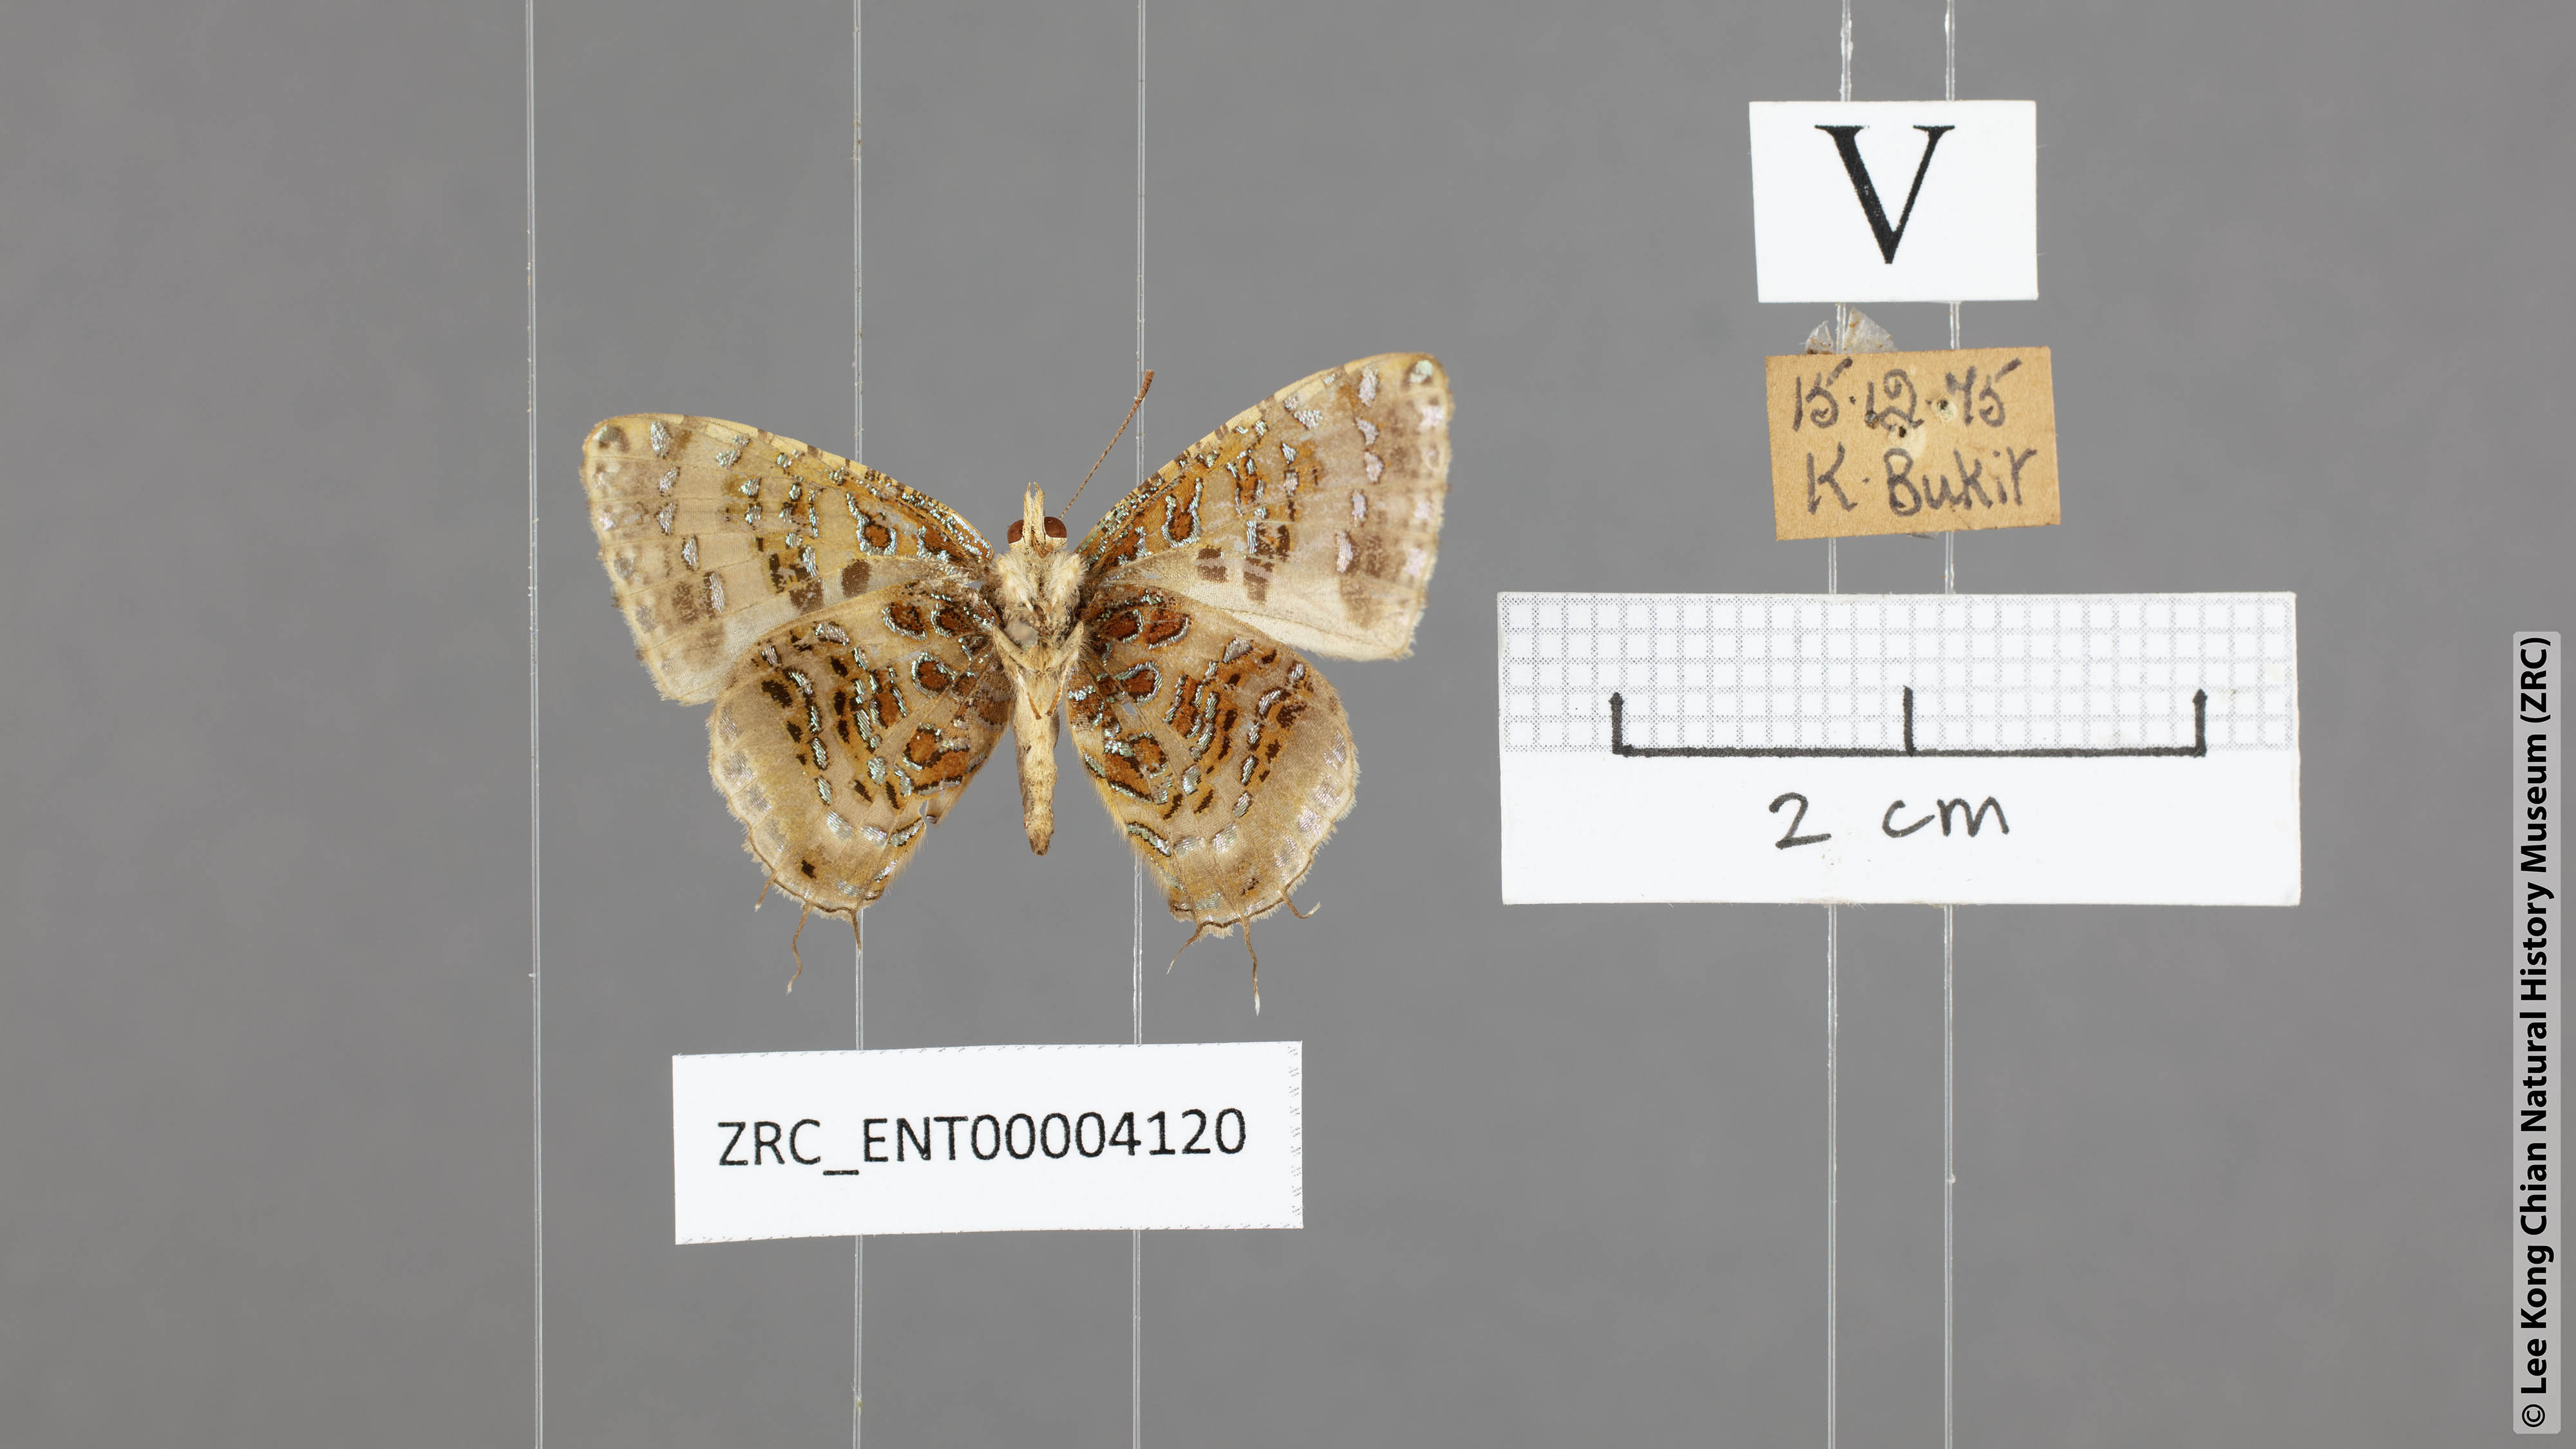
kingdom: Animalia
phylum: Arthropoda
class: Insecta
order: Lepidoptera
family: Lycaenidae
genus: Catapaecilma
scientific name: Catapaecilma major
